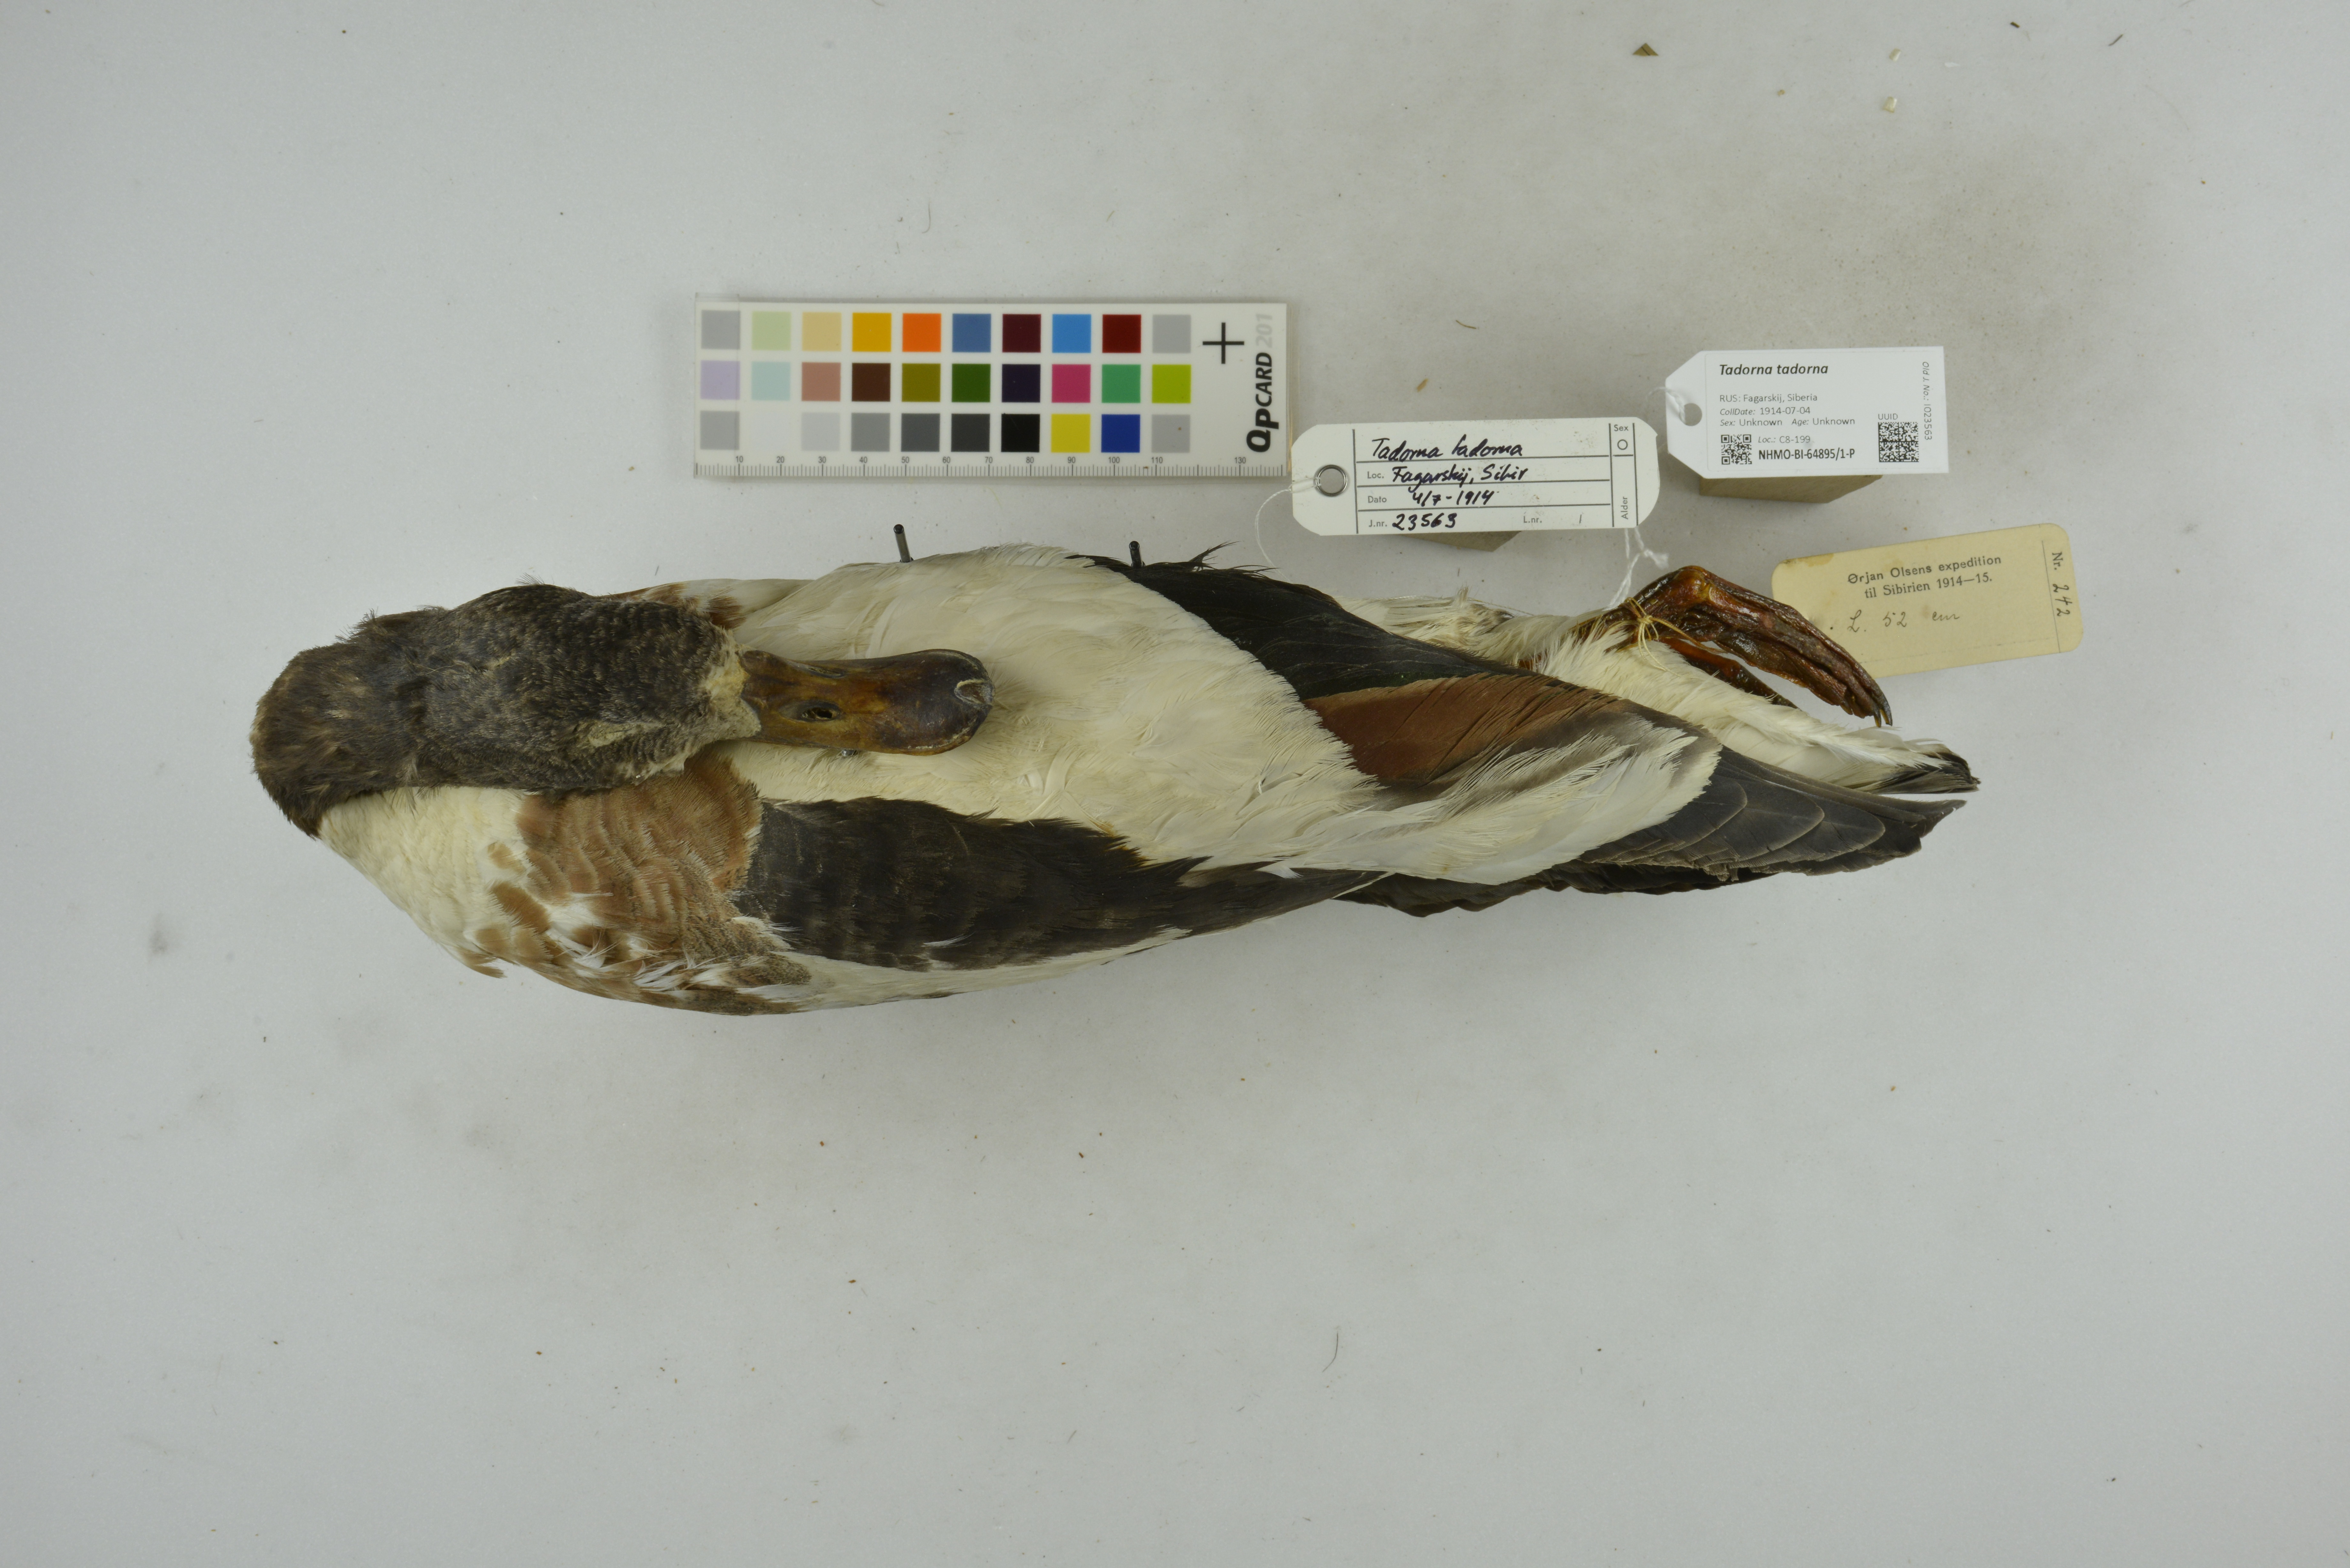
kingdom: Animalia
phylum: Chordata
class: Aves
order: Anseriformes
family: Anatidae
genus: Tadorna
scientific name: Tadorna tadorna
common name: Common shelduck
